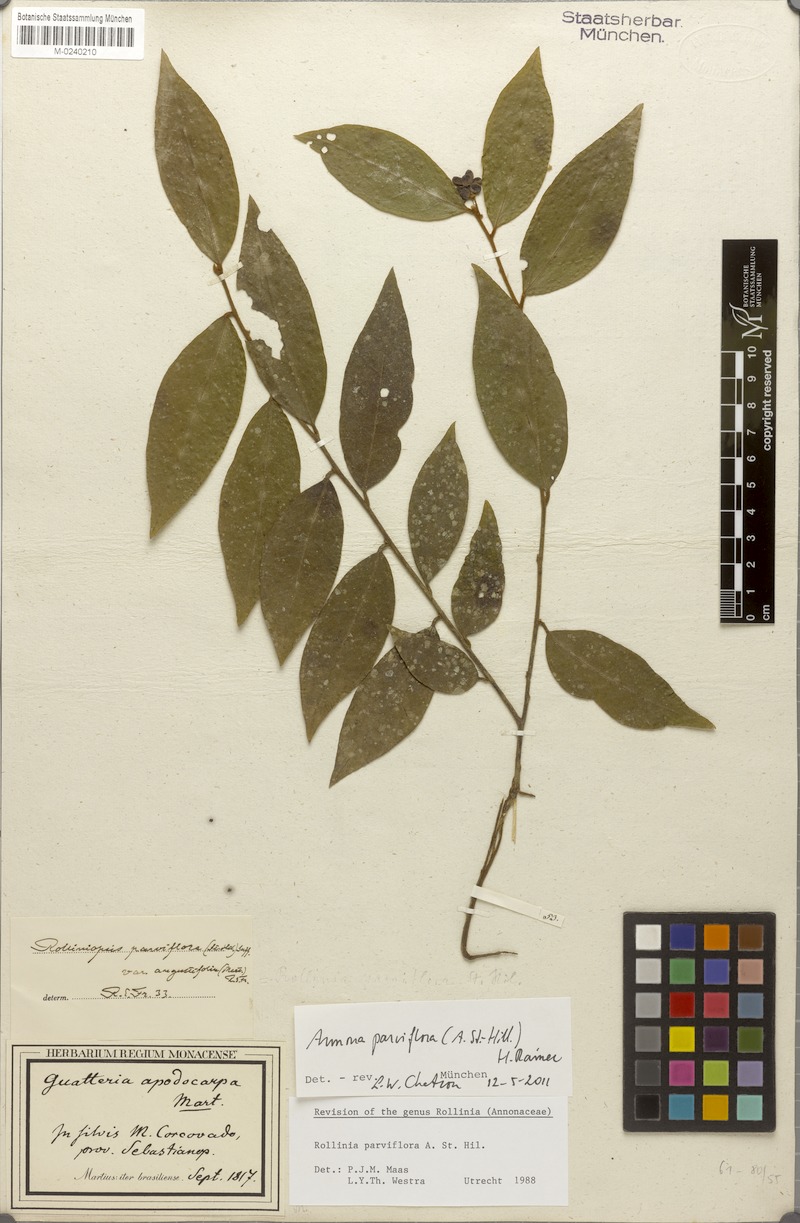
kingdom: Plantae
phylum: Tracheophyta
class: Magnoliopsida
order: Magnoliales
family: Annonaceae
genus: Annona
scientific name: Annona parviflora
